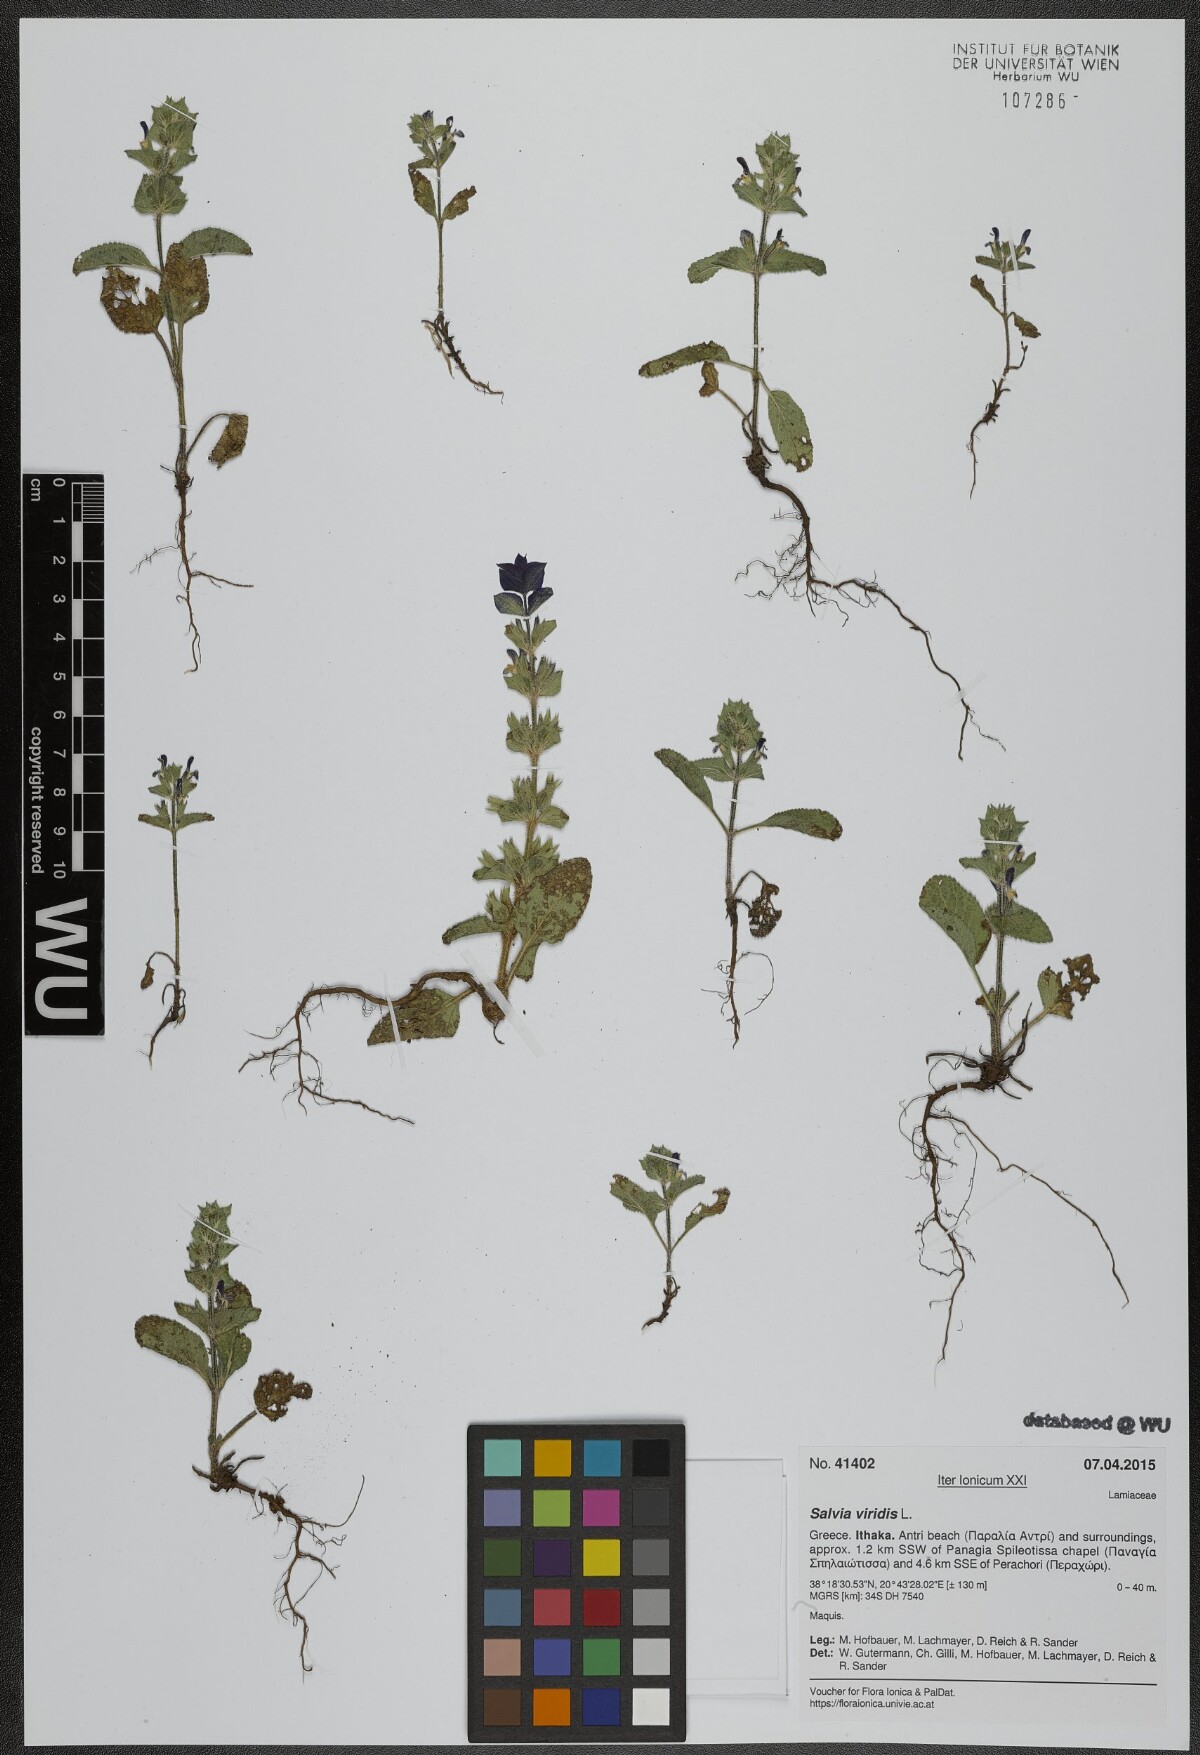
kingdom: Plantae
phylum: Tracheophyta
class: Magnoliopsida
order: Lamiales
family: Lamiaceae
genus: Salvia
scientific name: Salvia viridis
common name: Annual clary
